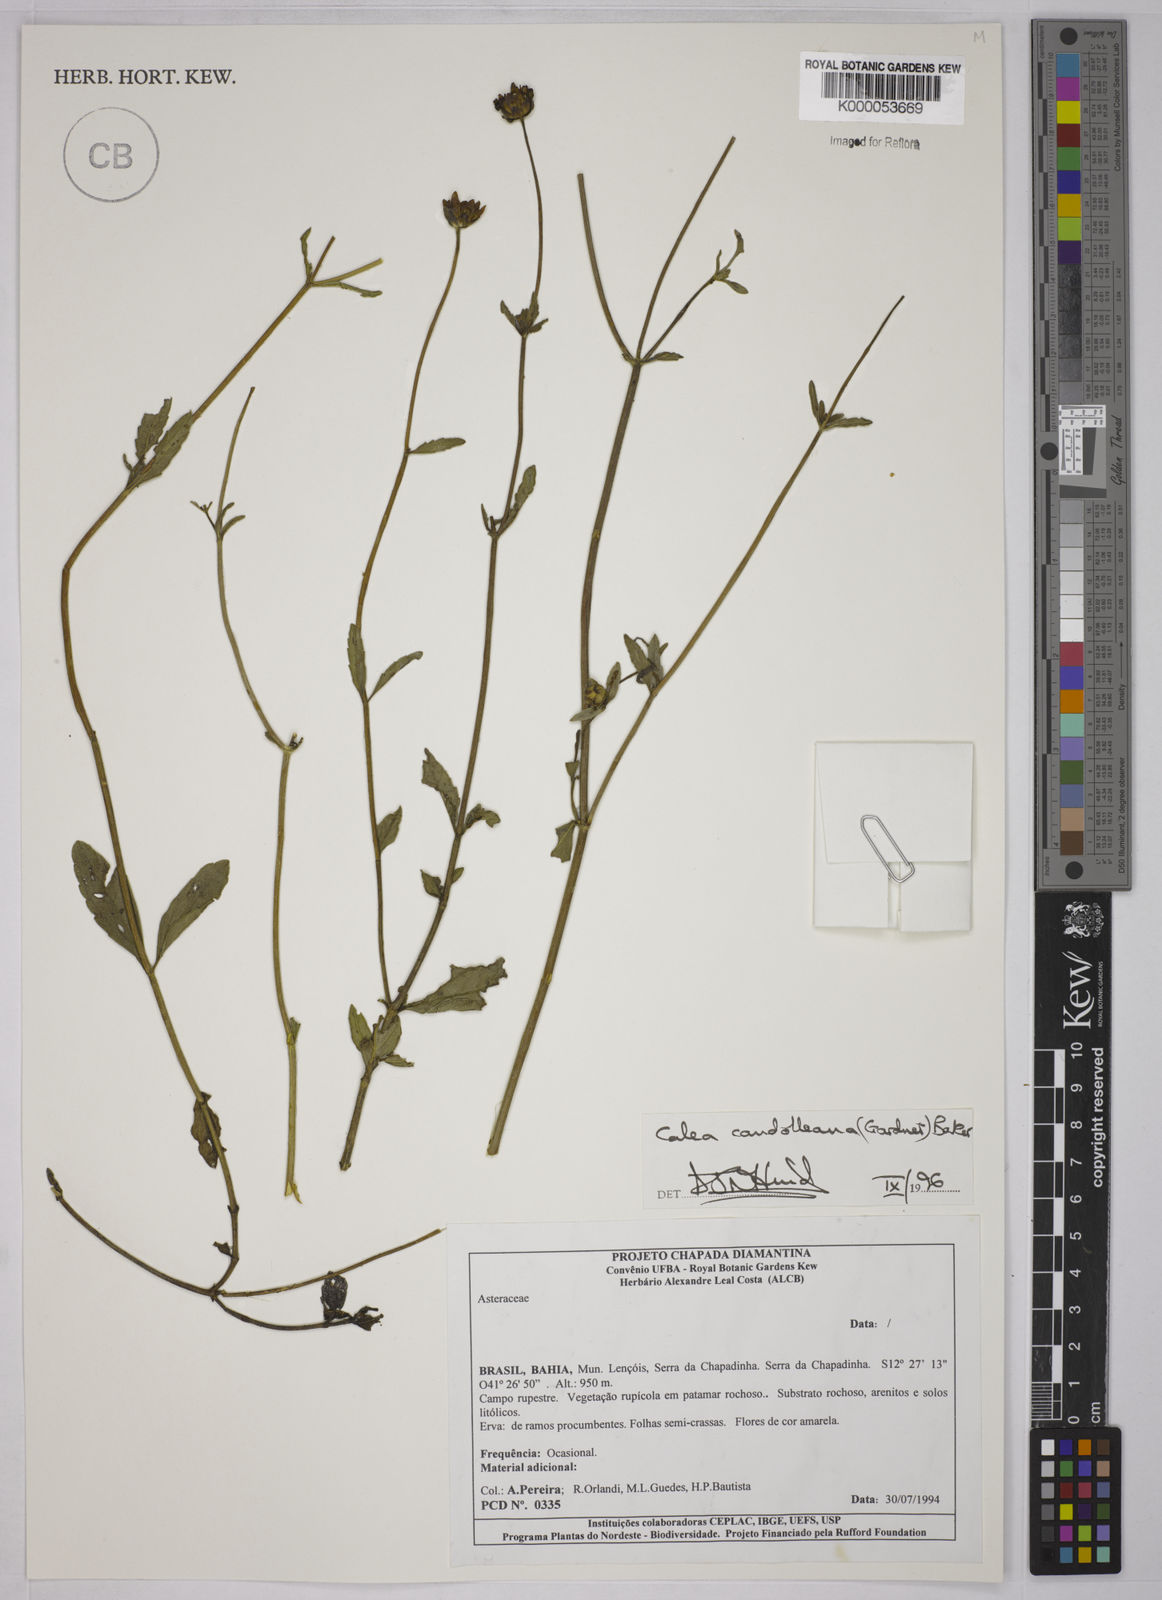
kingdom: Plantae
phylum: Tracheophyta
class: Magnoliopsida
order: Asterales
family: Asteraceae
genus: Calea
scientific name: Calea candolleana
